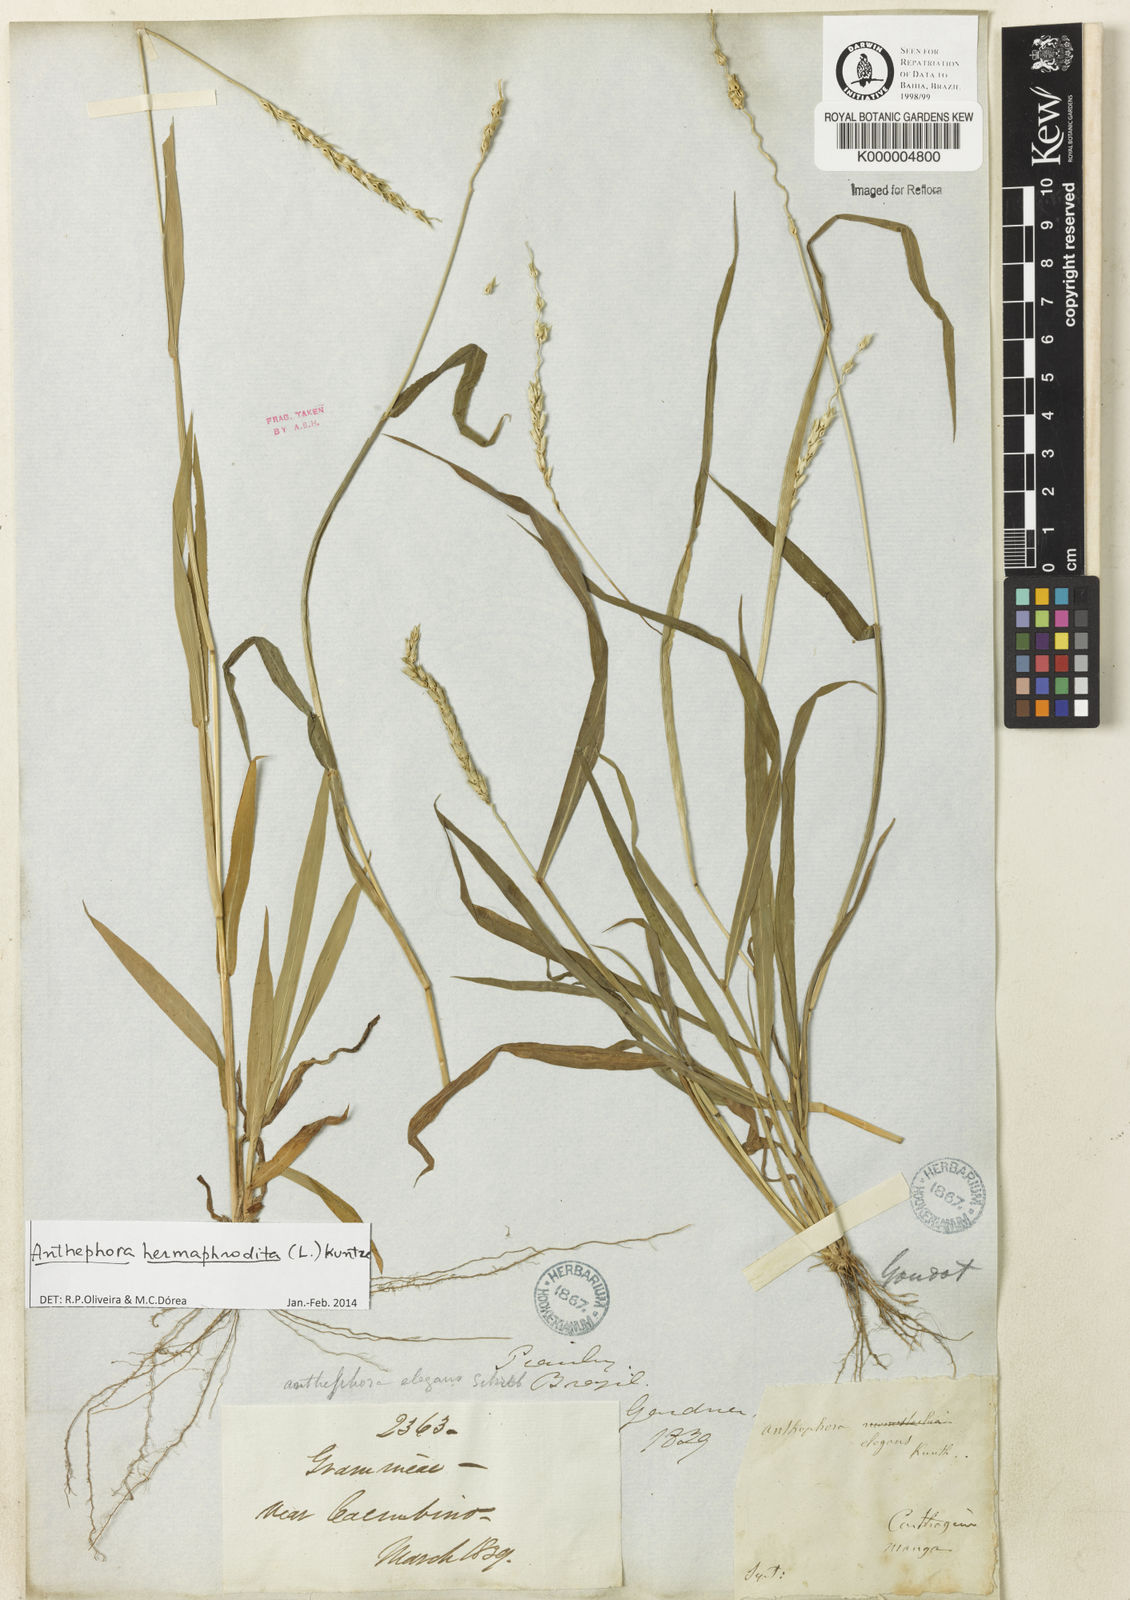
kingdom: Plantae
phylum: Tracheophyta
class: Liliopsida
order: Poales
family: Poaceae
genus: Anthephora
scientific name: Anthephora hermaphrodita
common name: Oldfield grass
